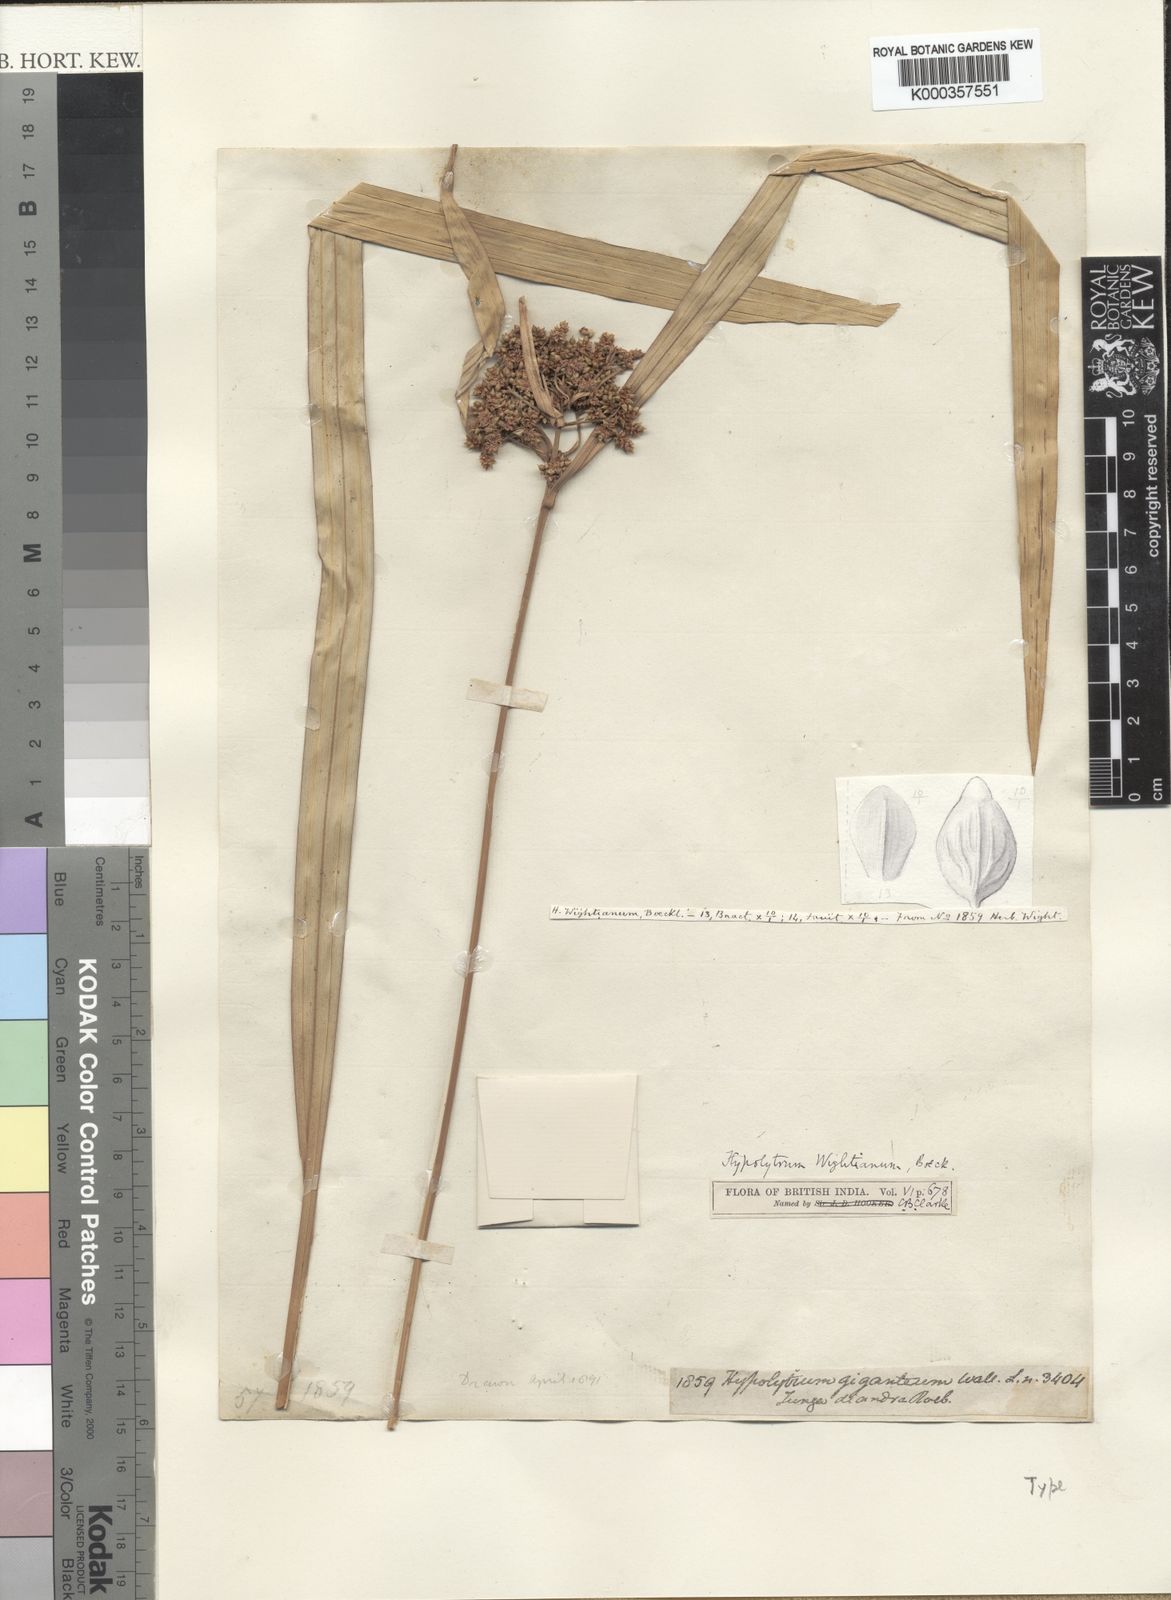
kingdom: Plantae
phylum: Tracheophyta
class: Liliopsida
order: Poales
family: Cyperaceae
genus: Hypolytrum
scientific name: Hypolytrum
